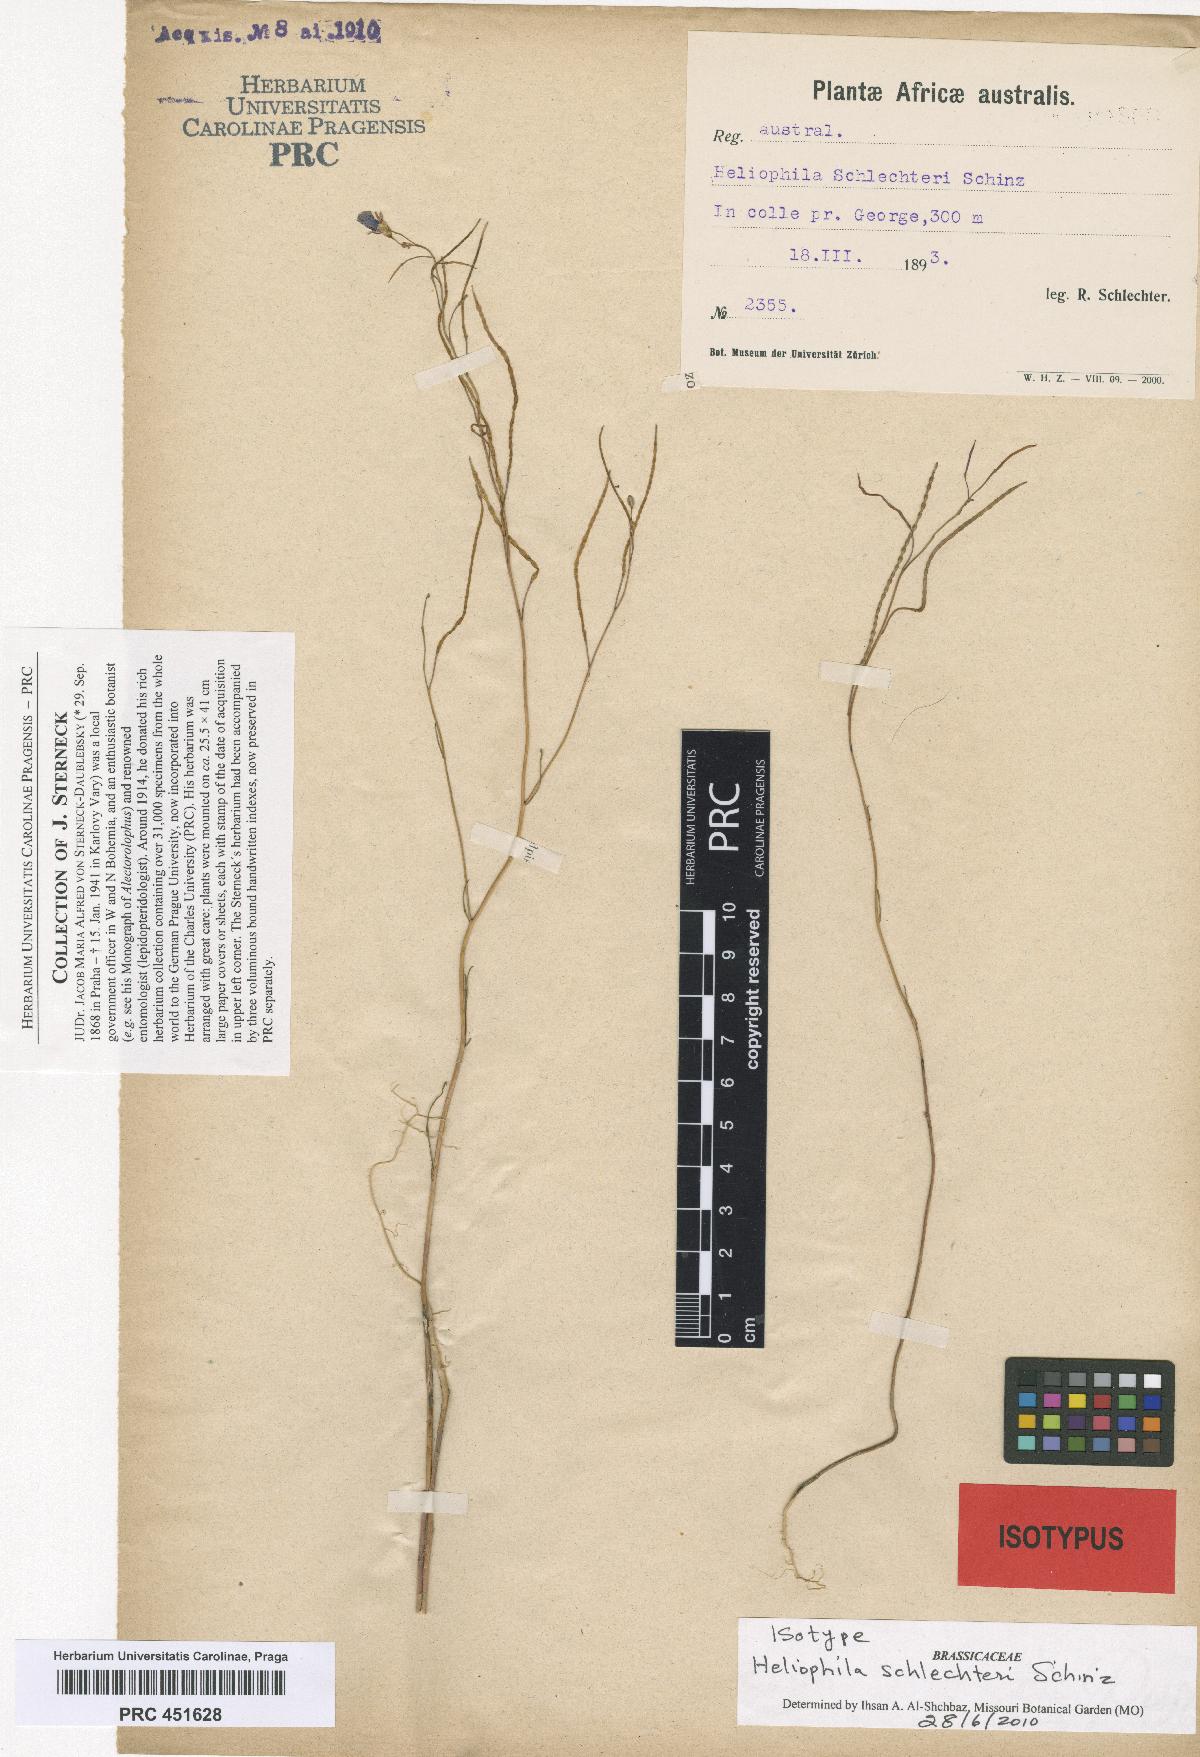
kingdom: Plantae
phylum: Tracheophyta
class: Magnoliopsida
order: Brassicales
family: Brassicaceae
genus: Heliophila
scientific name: Heliophila digitata
